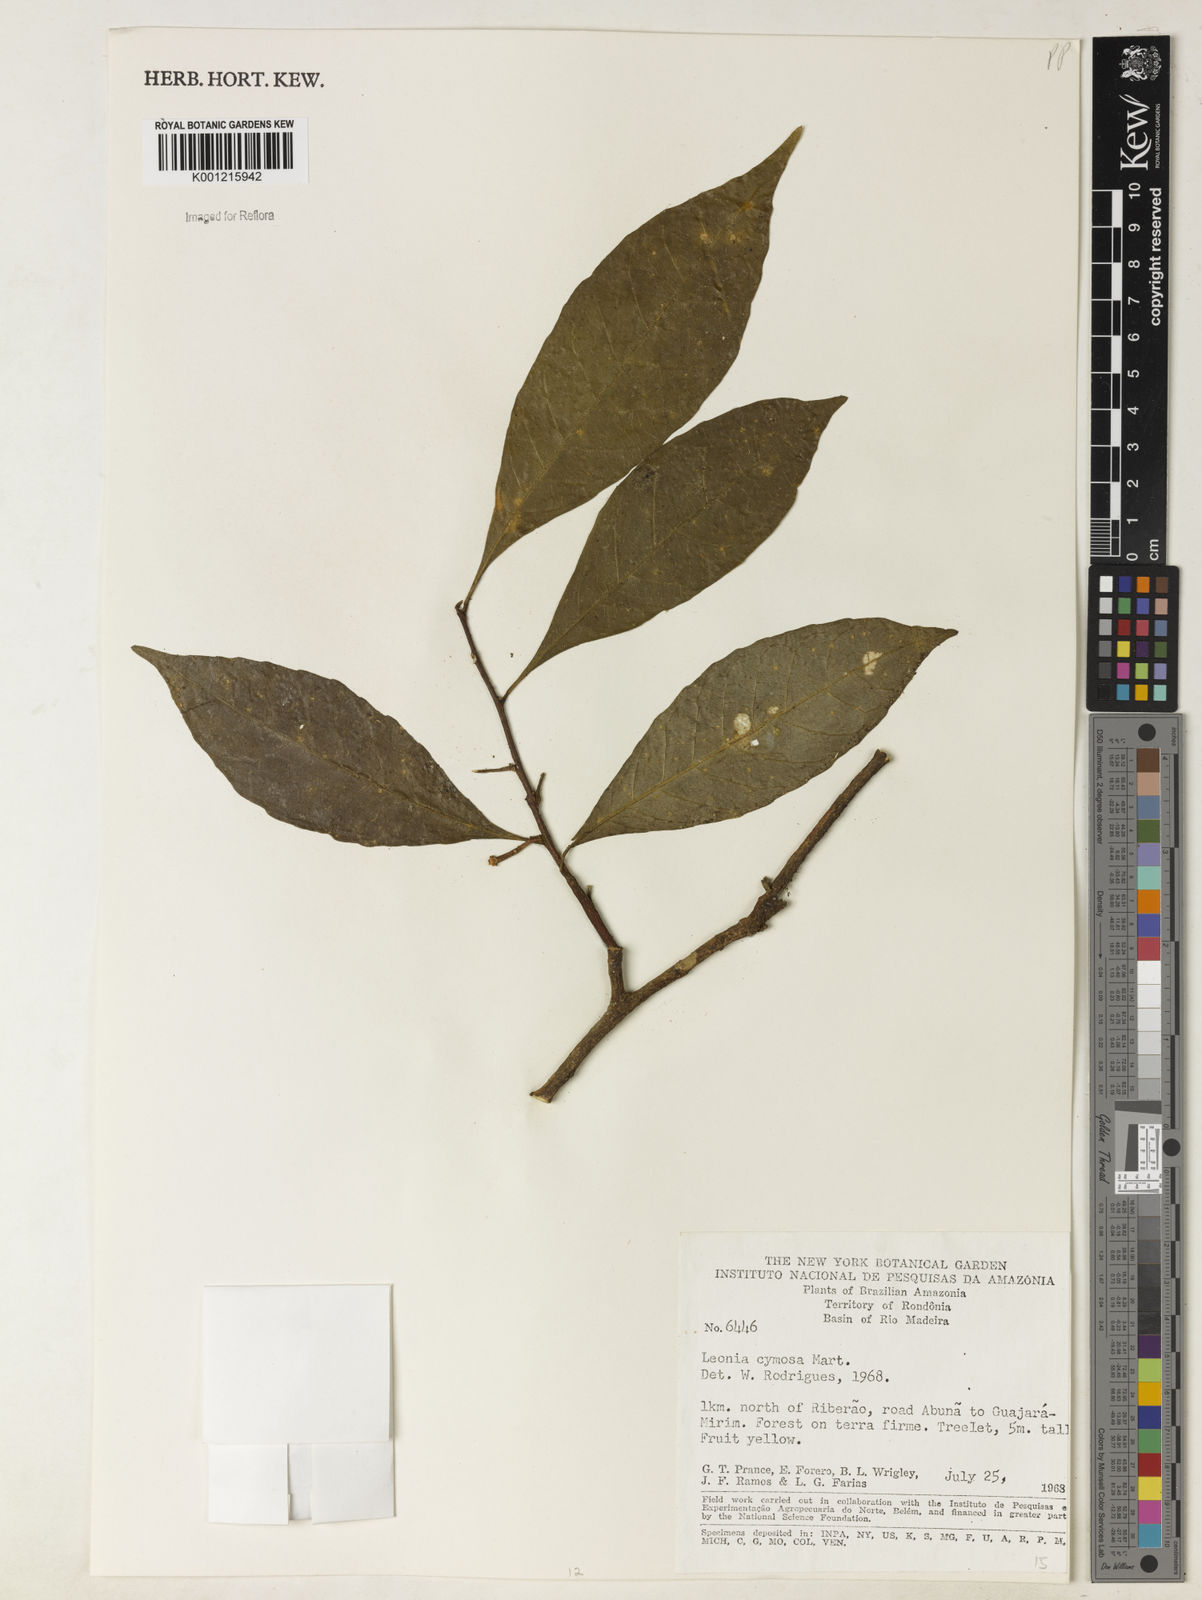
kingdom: Plantae
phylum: Tracheophyta
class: Magnoliopsida
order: Malpighiales
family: Violaceae
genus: Leonia
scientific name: Leonia cymosa
